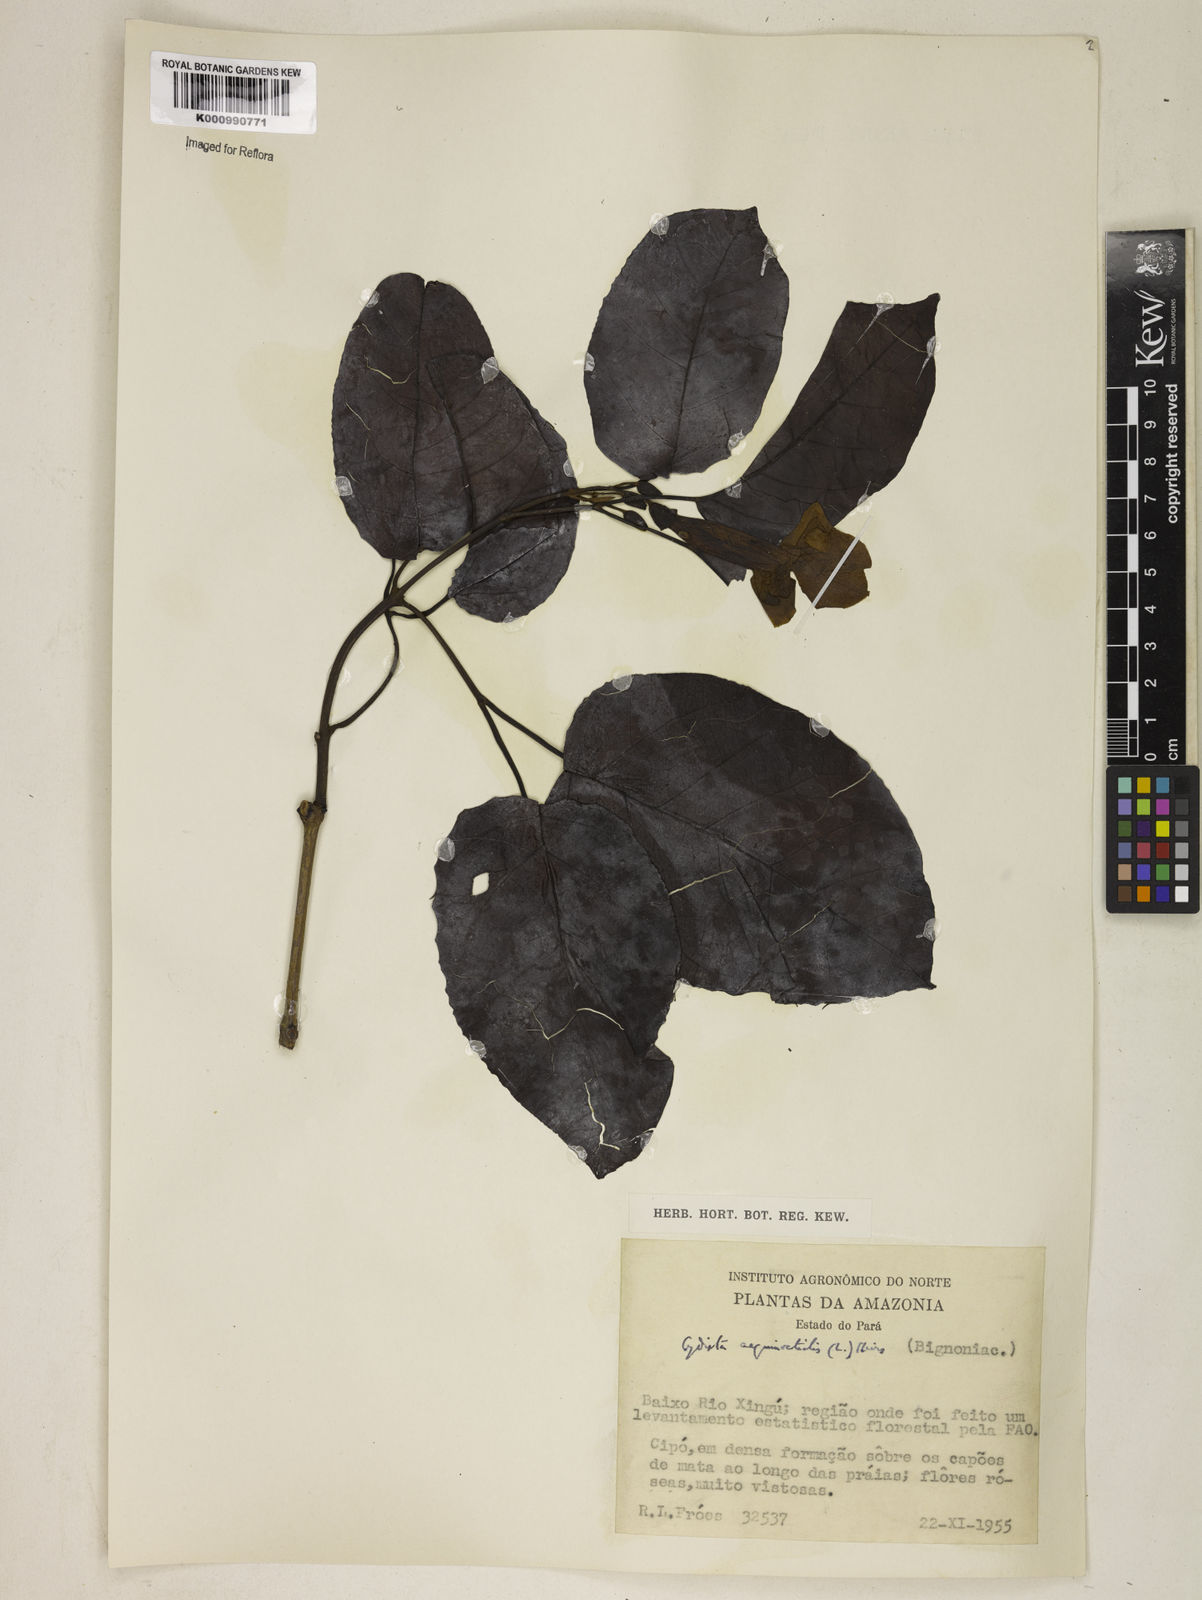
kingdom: Plantae
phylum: Tracheophyta
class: Magnoliopsida
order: Lamiales
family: Bignoniaceae
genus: Bignonia
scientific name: Bignonia aequinoctialis
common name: Garlicvine
